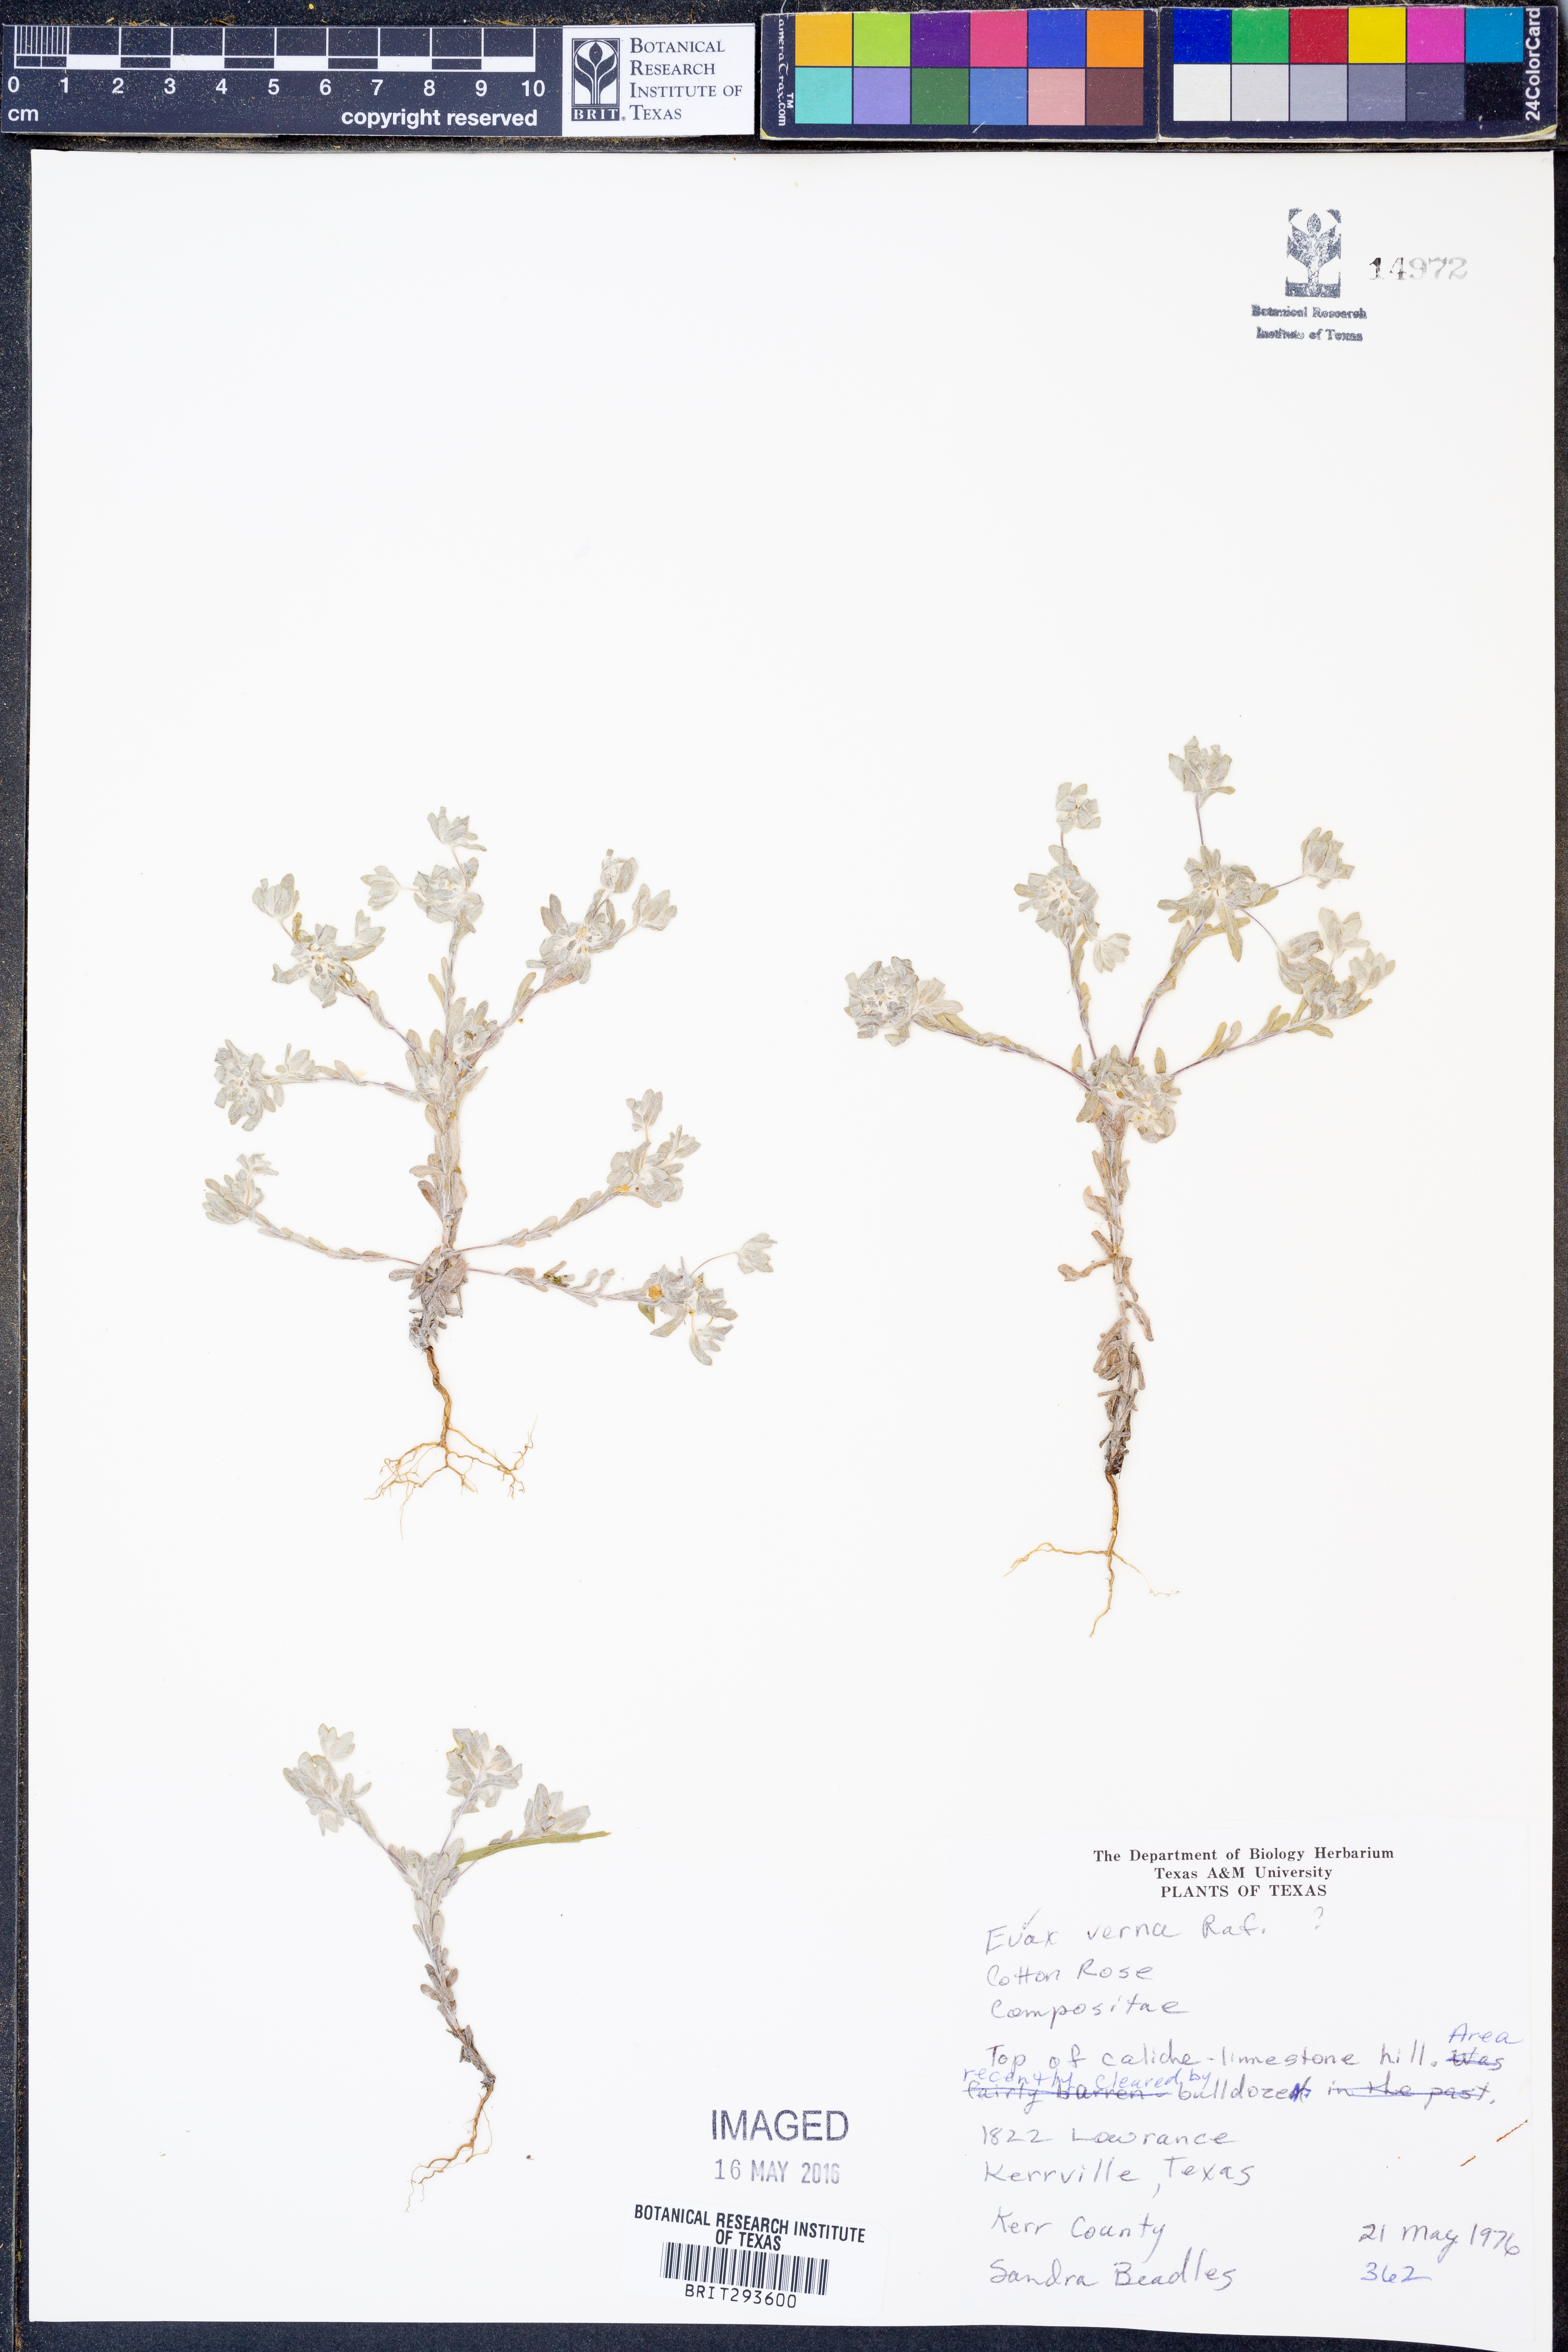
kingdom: Plantae
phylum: Tracheophyta
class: Magnoliopsida
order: Asterales
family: Asteraceae
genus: Diaperia
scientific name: Diaperia verna
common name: Many-stem rabbit-tobacco
